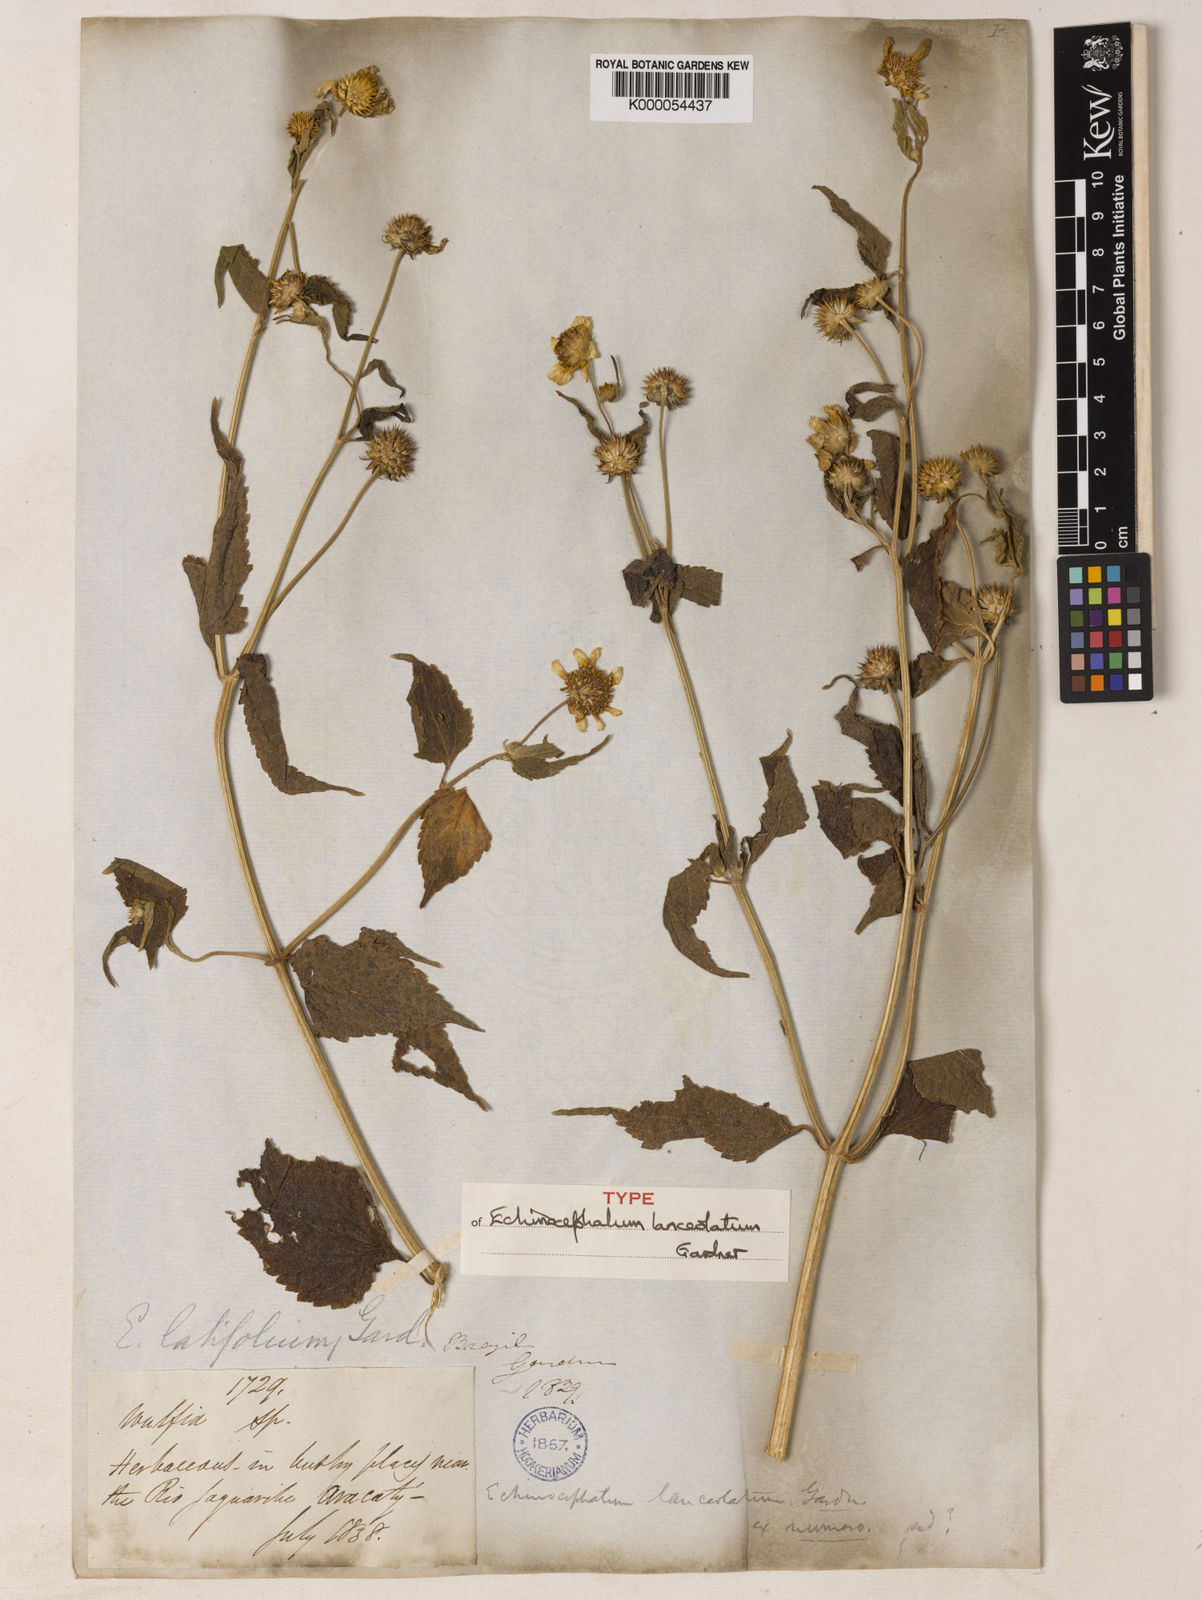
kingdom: Plantae
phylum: Tracheophyta
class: Magnoliopsida
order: Asterales
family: Asteraceae
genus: Echinocephalum
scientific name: Echinocephalum latifolium
